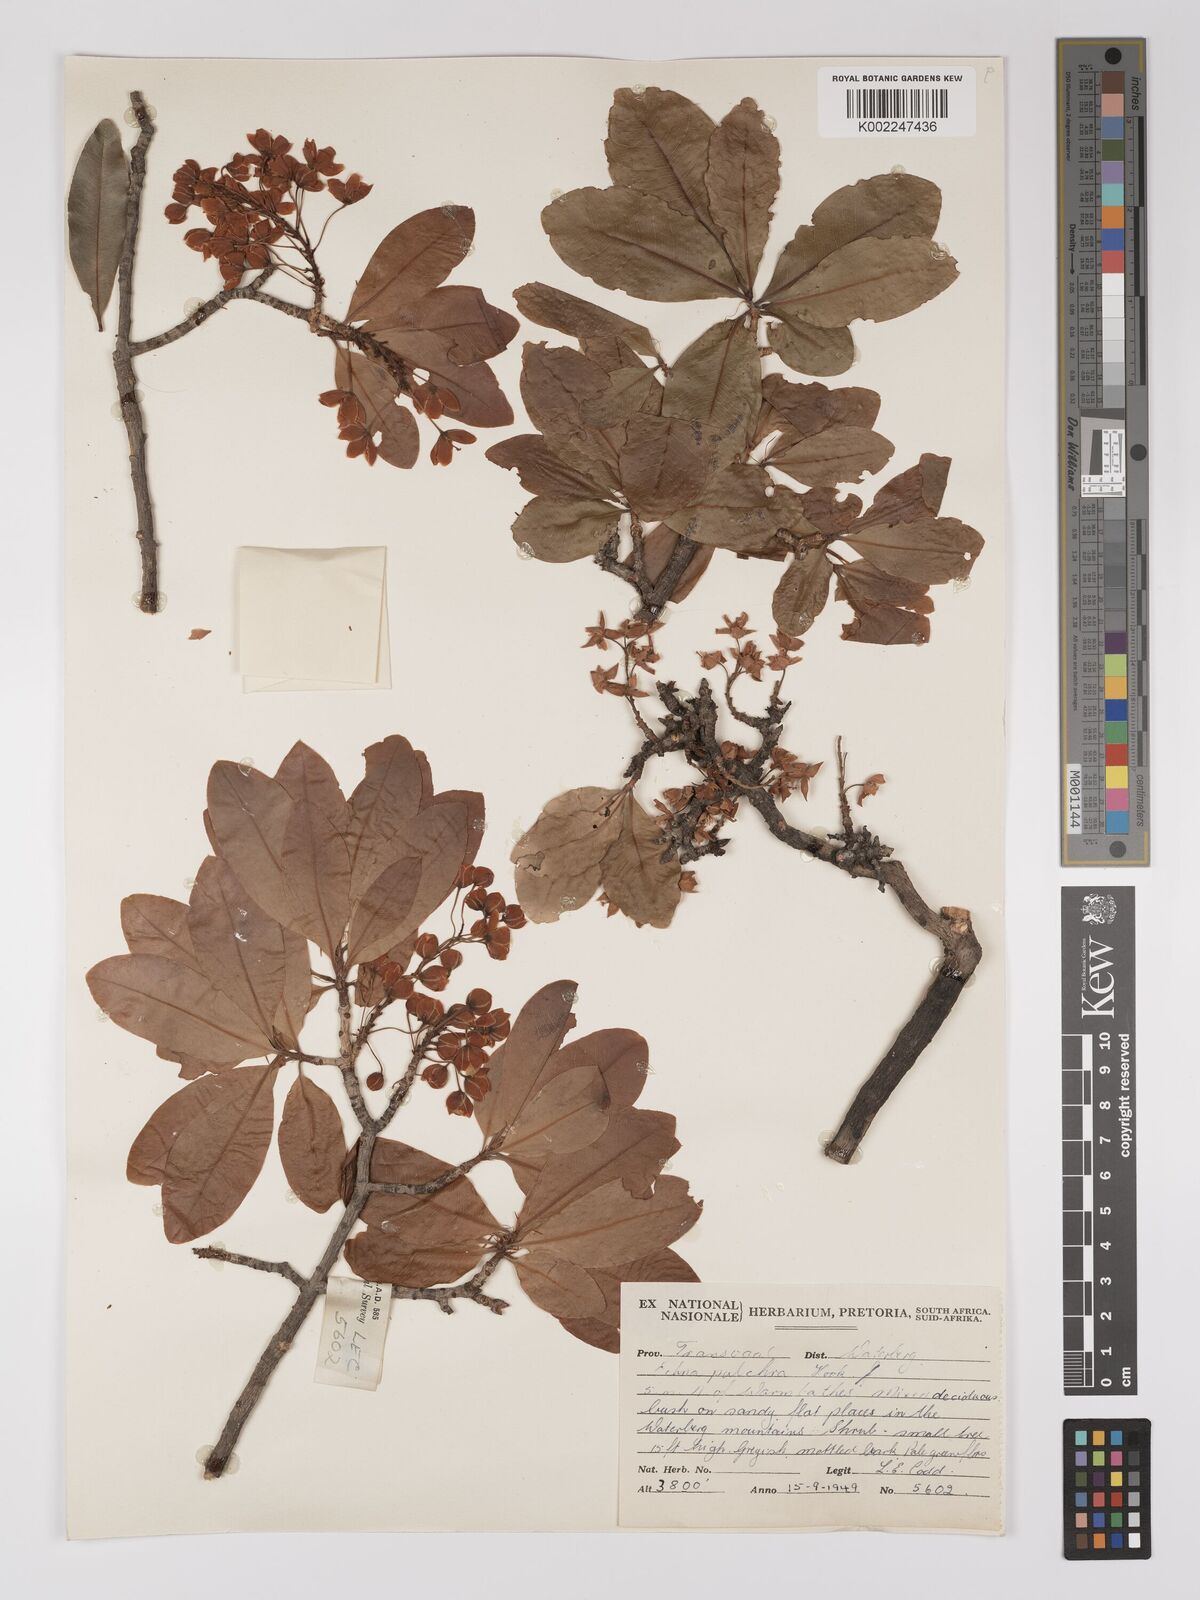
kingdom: Plantae
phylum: Tracheophyta
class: Magnoliopsida
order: Malpighiales
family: Ochnaceae
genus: Ochna
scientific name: Ochna pulchra
